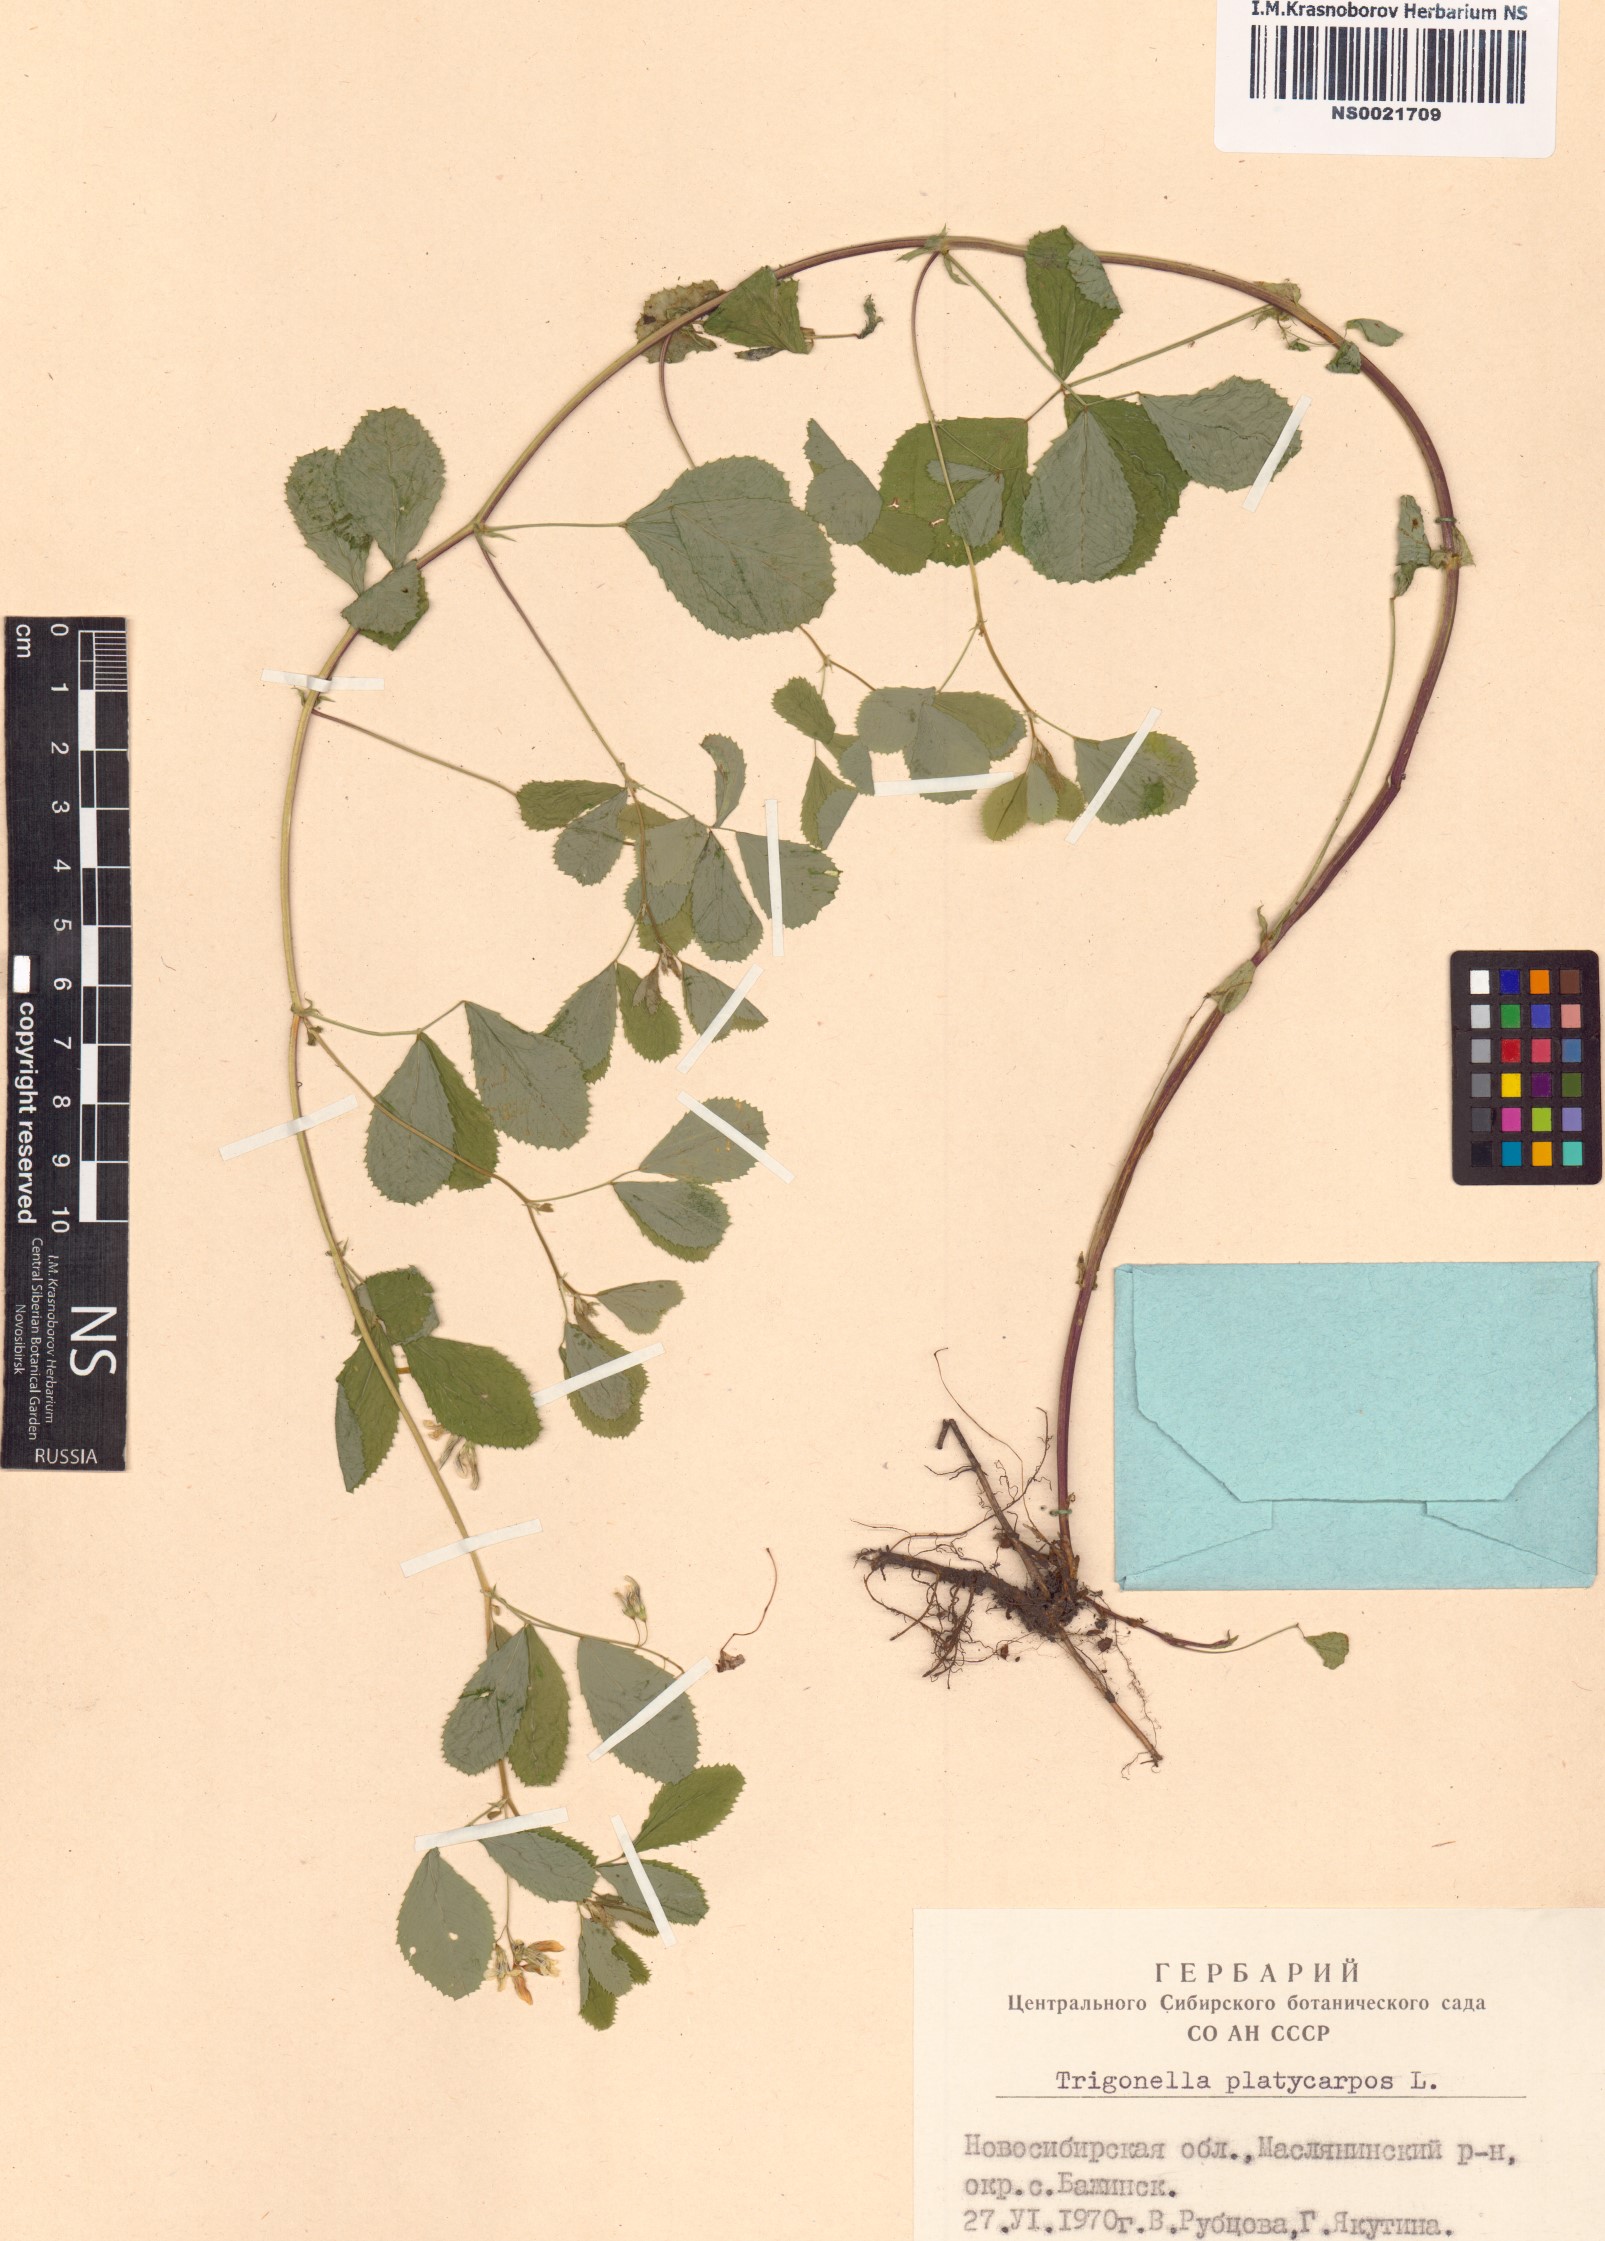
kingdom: Plantae
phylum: Tracheophyta
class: Magnoliopsida
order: Fabales
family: Fabaceae
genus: Medicago
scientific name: Medicago platycarpos
